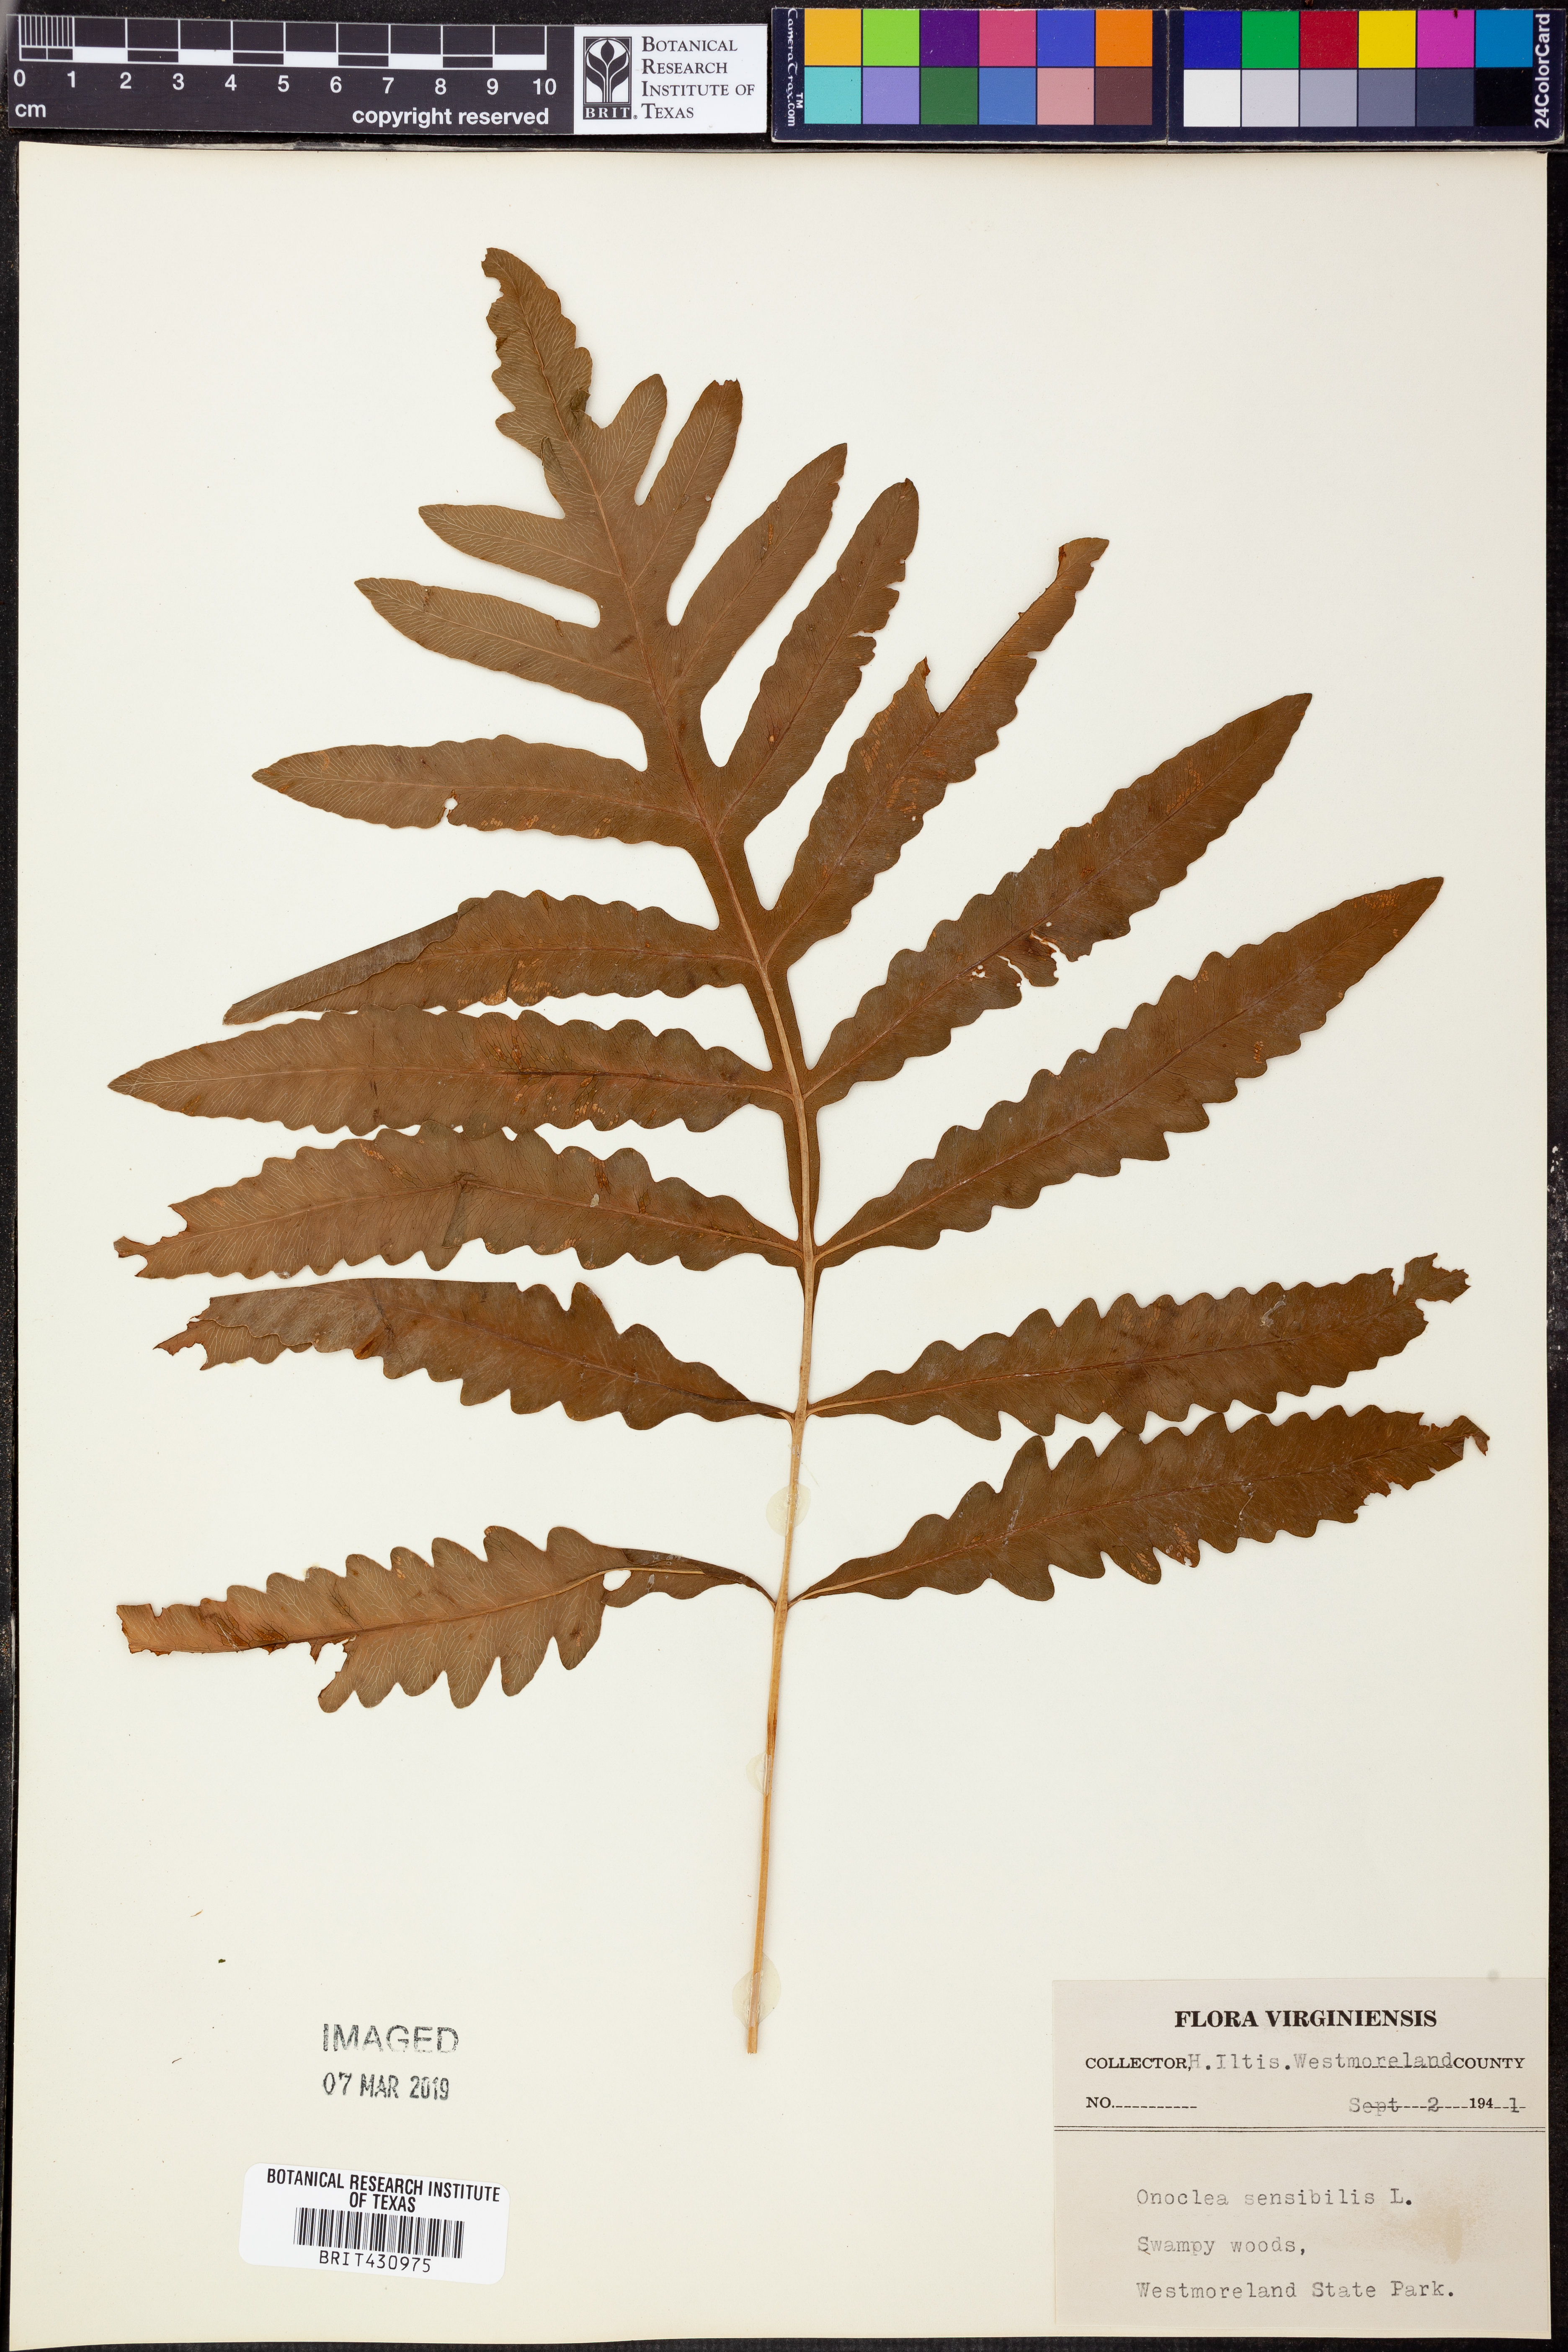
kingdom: Plantae
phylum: Tracheophyta
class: Polypodiopsida
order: Polypodiales
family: Onocleaceae
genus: Onoclea
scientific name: Onoclea sensibilis
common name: Sensitive fern
